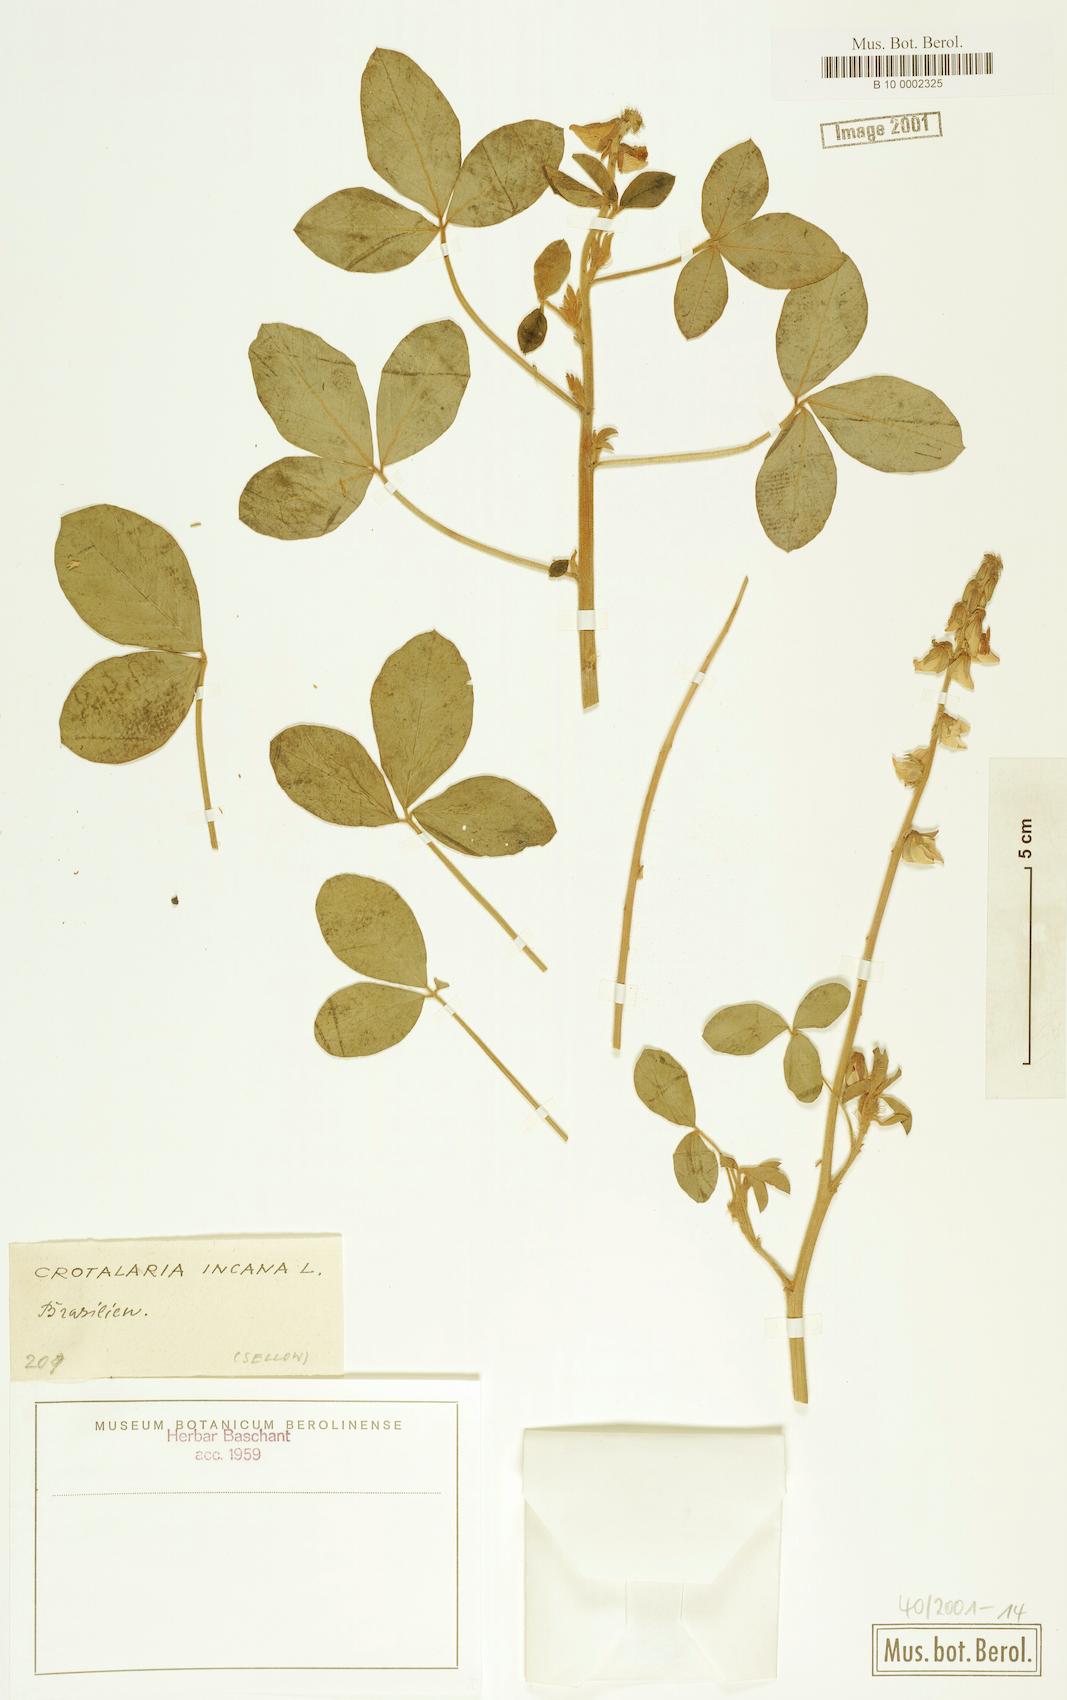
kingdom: Plantae
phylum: Tracheophyta
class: Magnoliopsida
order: Fabales
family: Fabaceae
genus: Crotalaria
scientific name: Crotalaria incana
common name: Shakeshake
